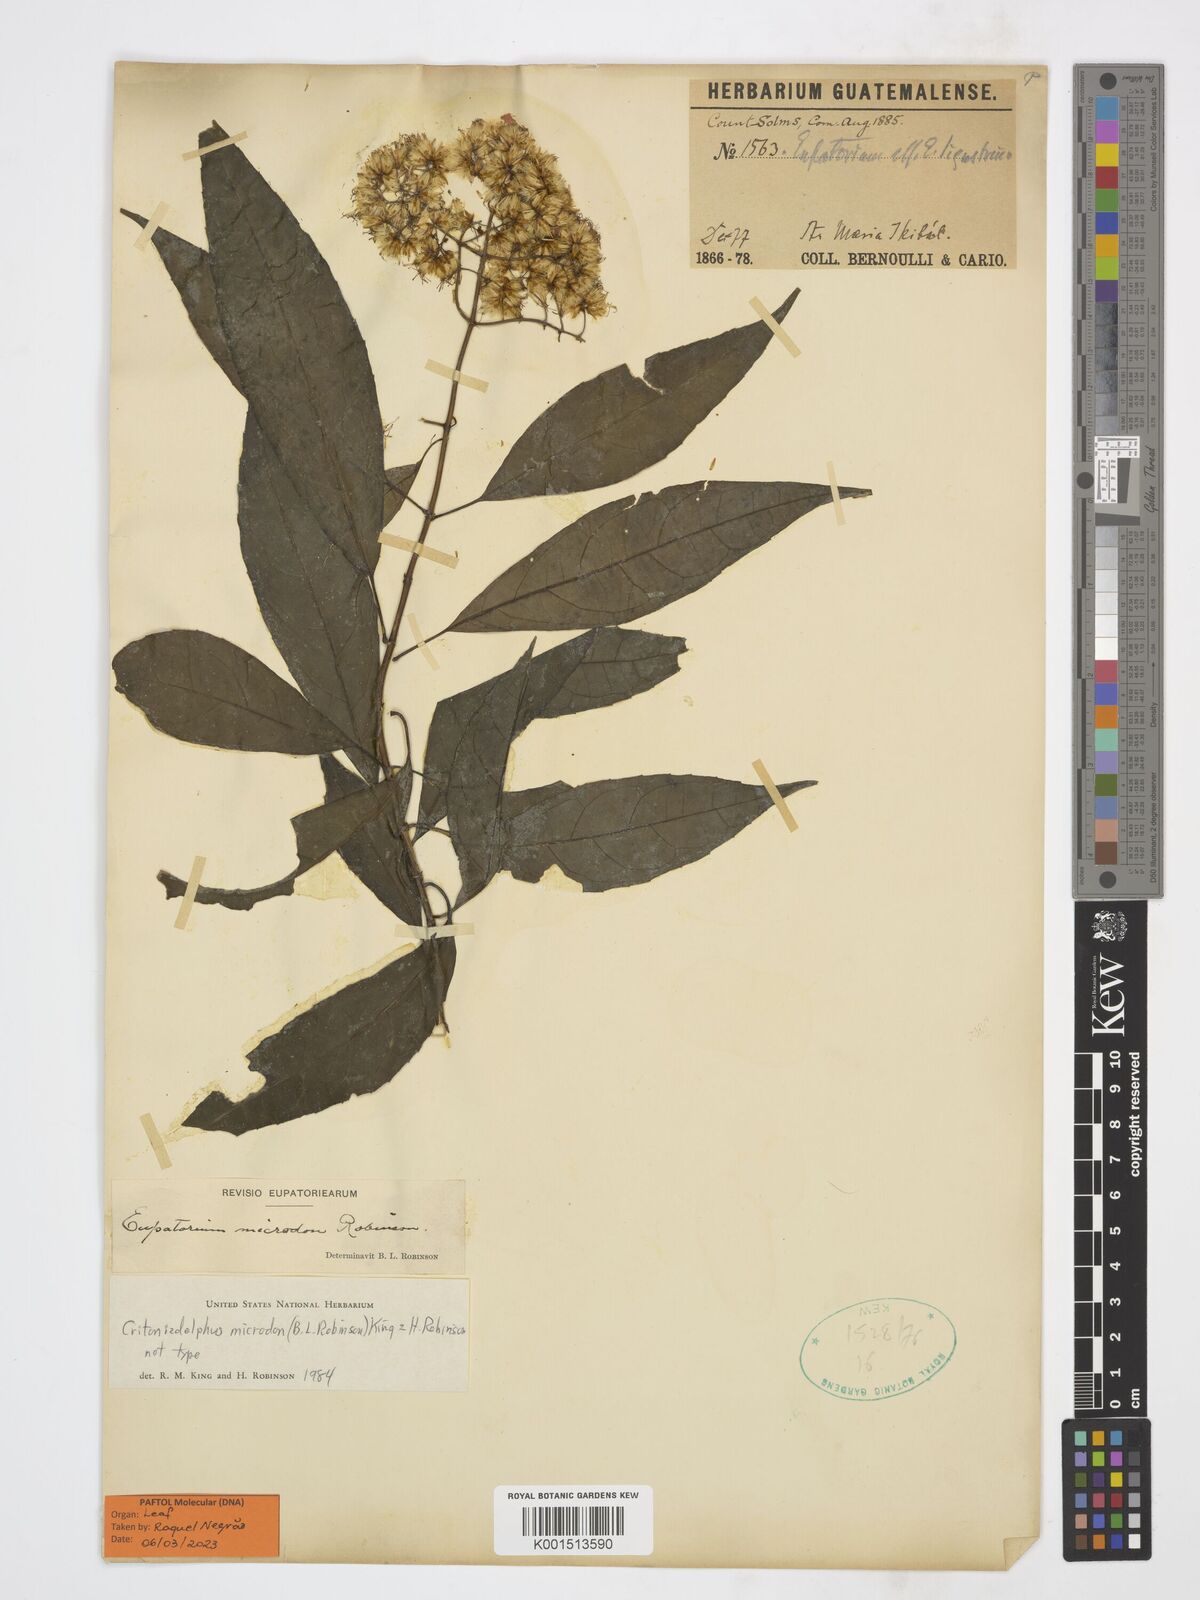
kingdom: Plantae
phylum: Tracheophyta
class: Magnoliopsida
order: Asterales
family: Asteraceae
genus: Critonia
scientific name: Critonia microdon
